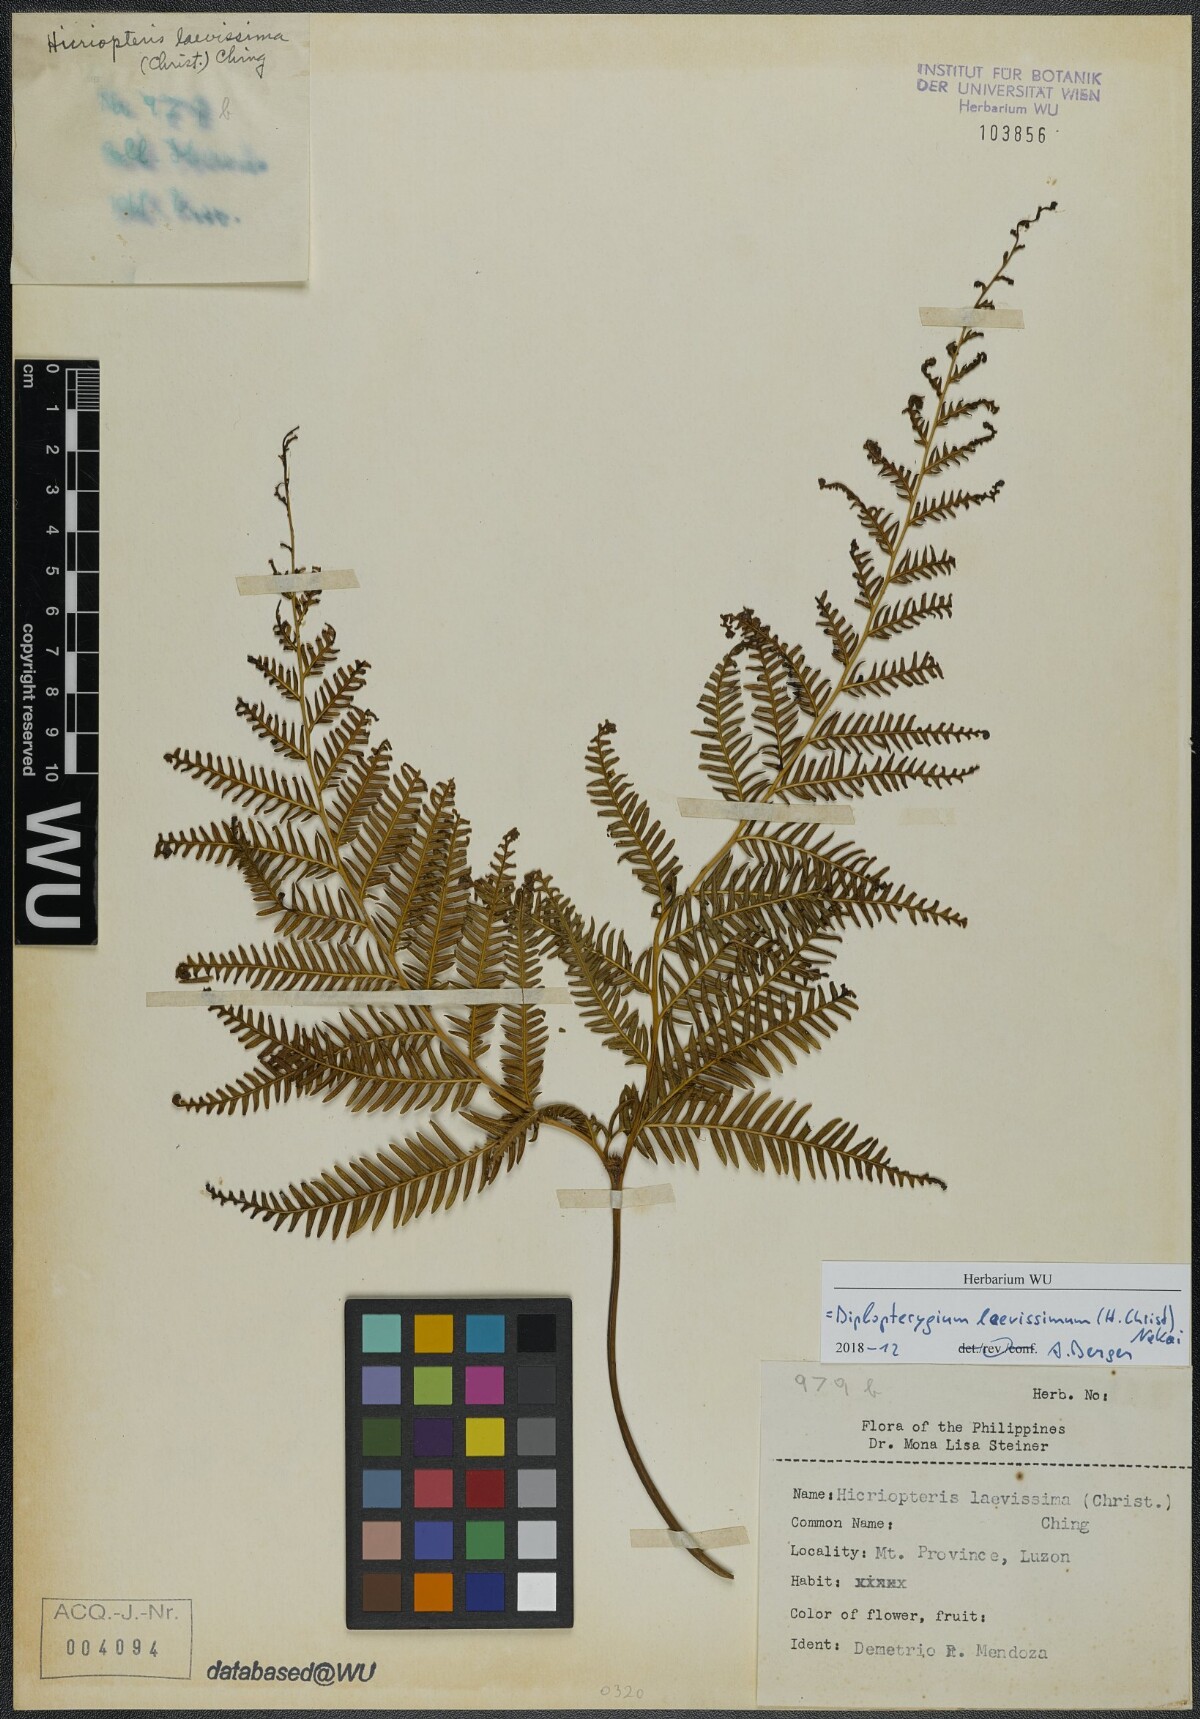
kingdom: Plantae
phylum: Tracheophyta
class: Polypodiopsida
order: Gleicheniales
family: Gleicheniaceae
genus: Diplopterygium
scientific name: Diplopterygium laevissimum
